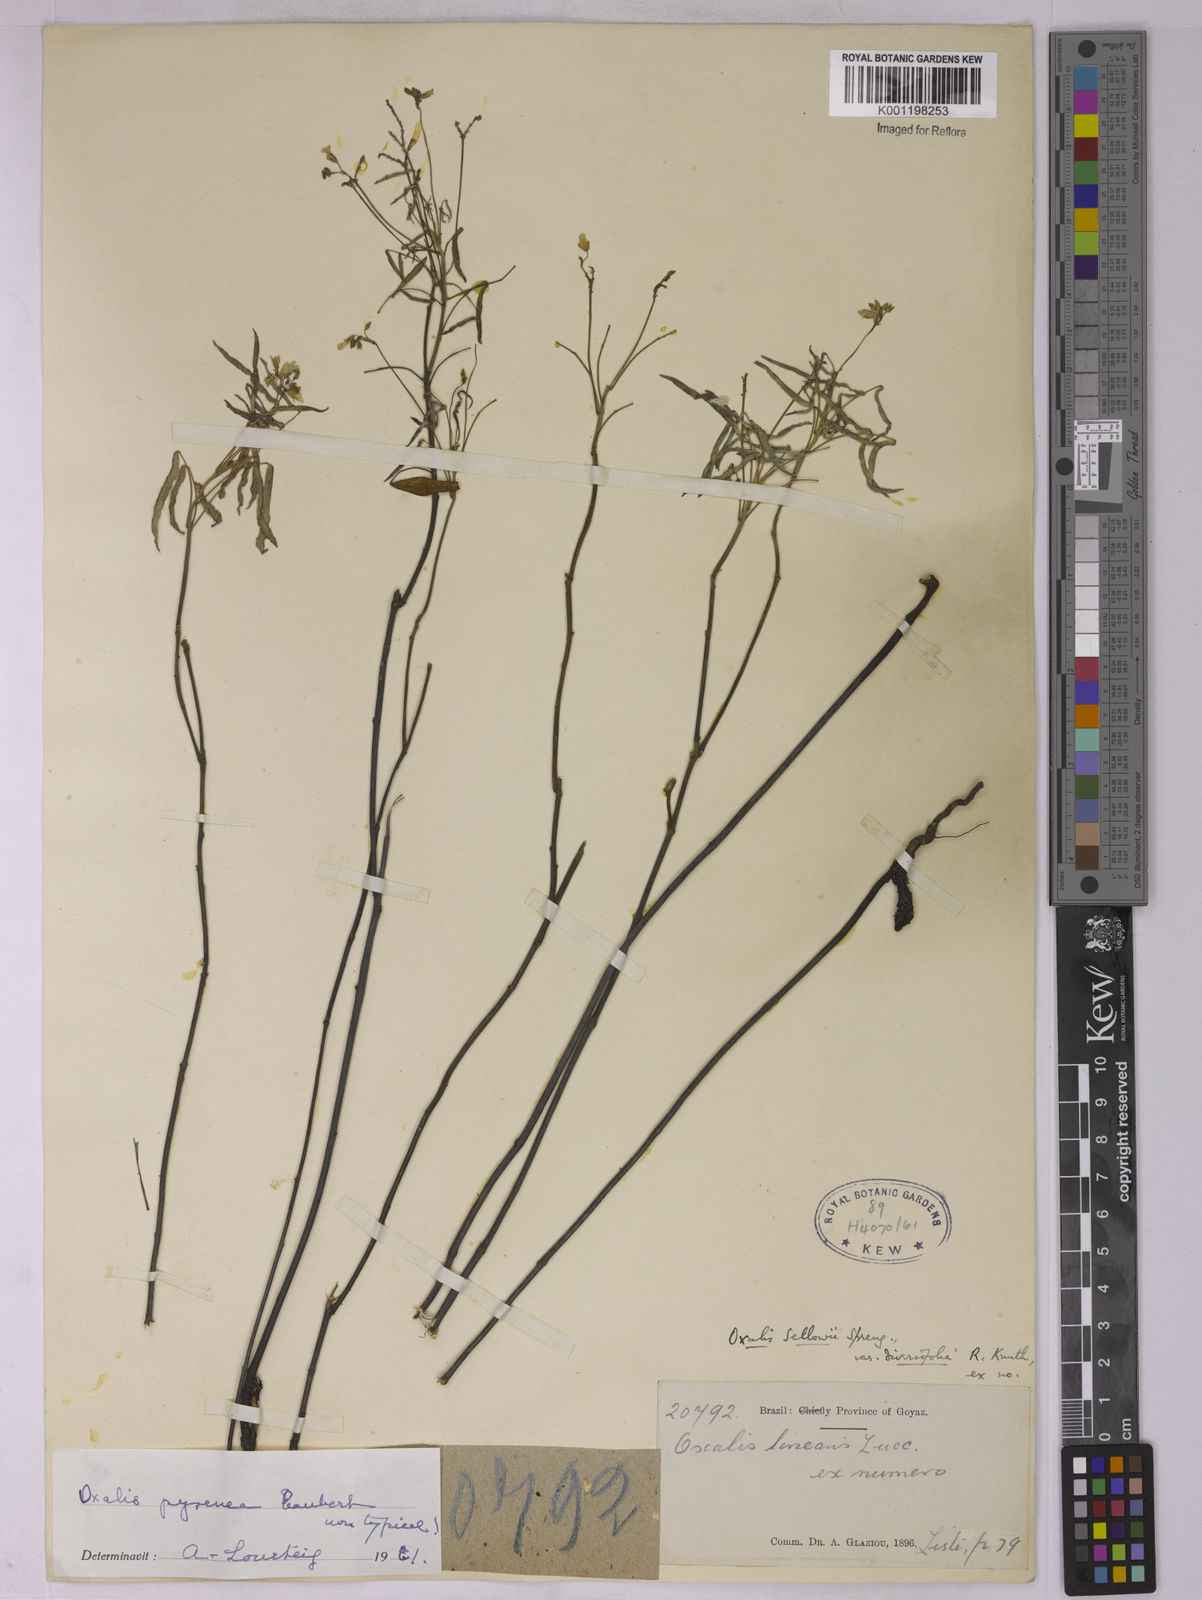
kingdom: Plantae
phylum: Tracheophyta
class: Magnoliopsida
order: Oxalidales
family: Oxalidaceae
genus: Oxalis
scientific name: Oxalis pyrenea
